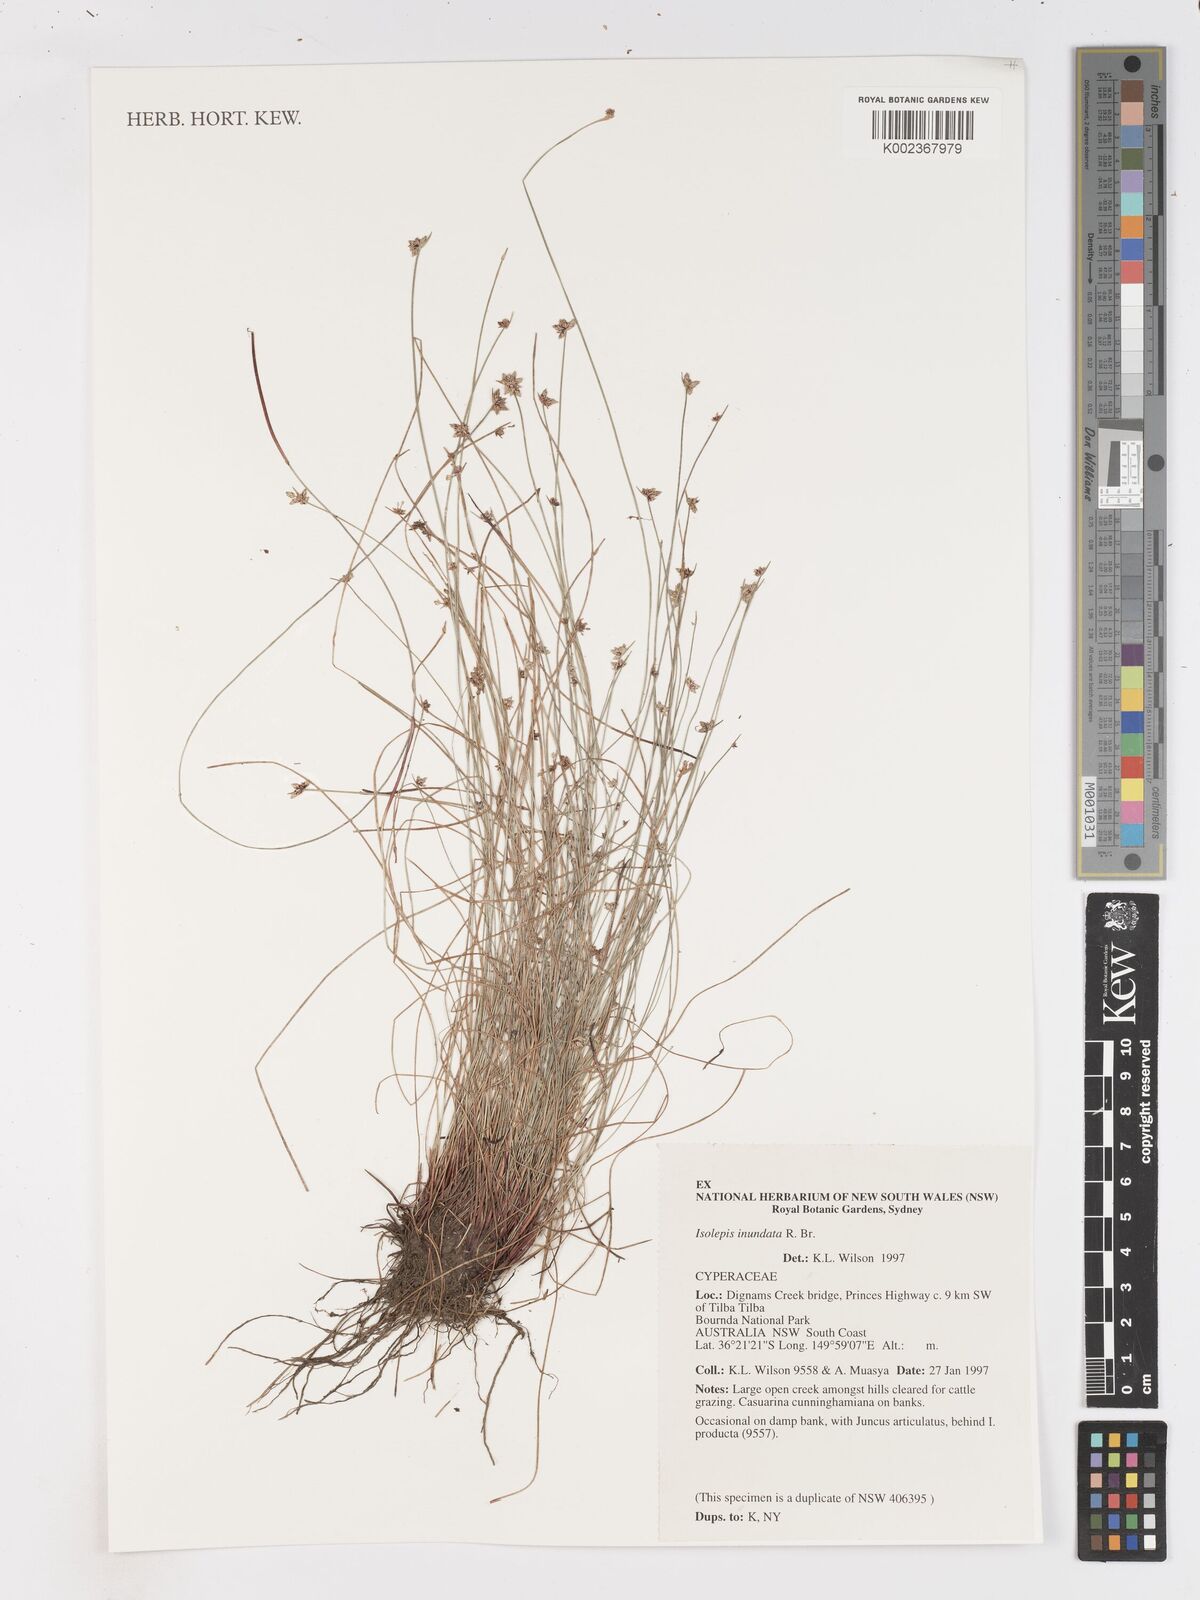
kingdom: Plantae
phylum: Tracheophyta
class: Liliopsida
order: Poales
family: Cyperaceae
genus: Isolepis
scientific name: Isolepis inundata
